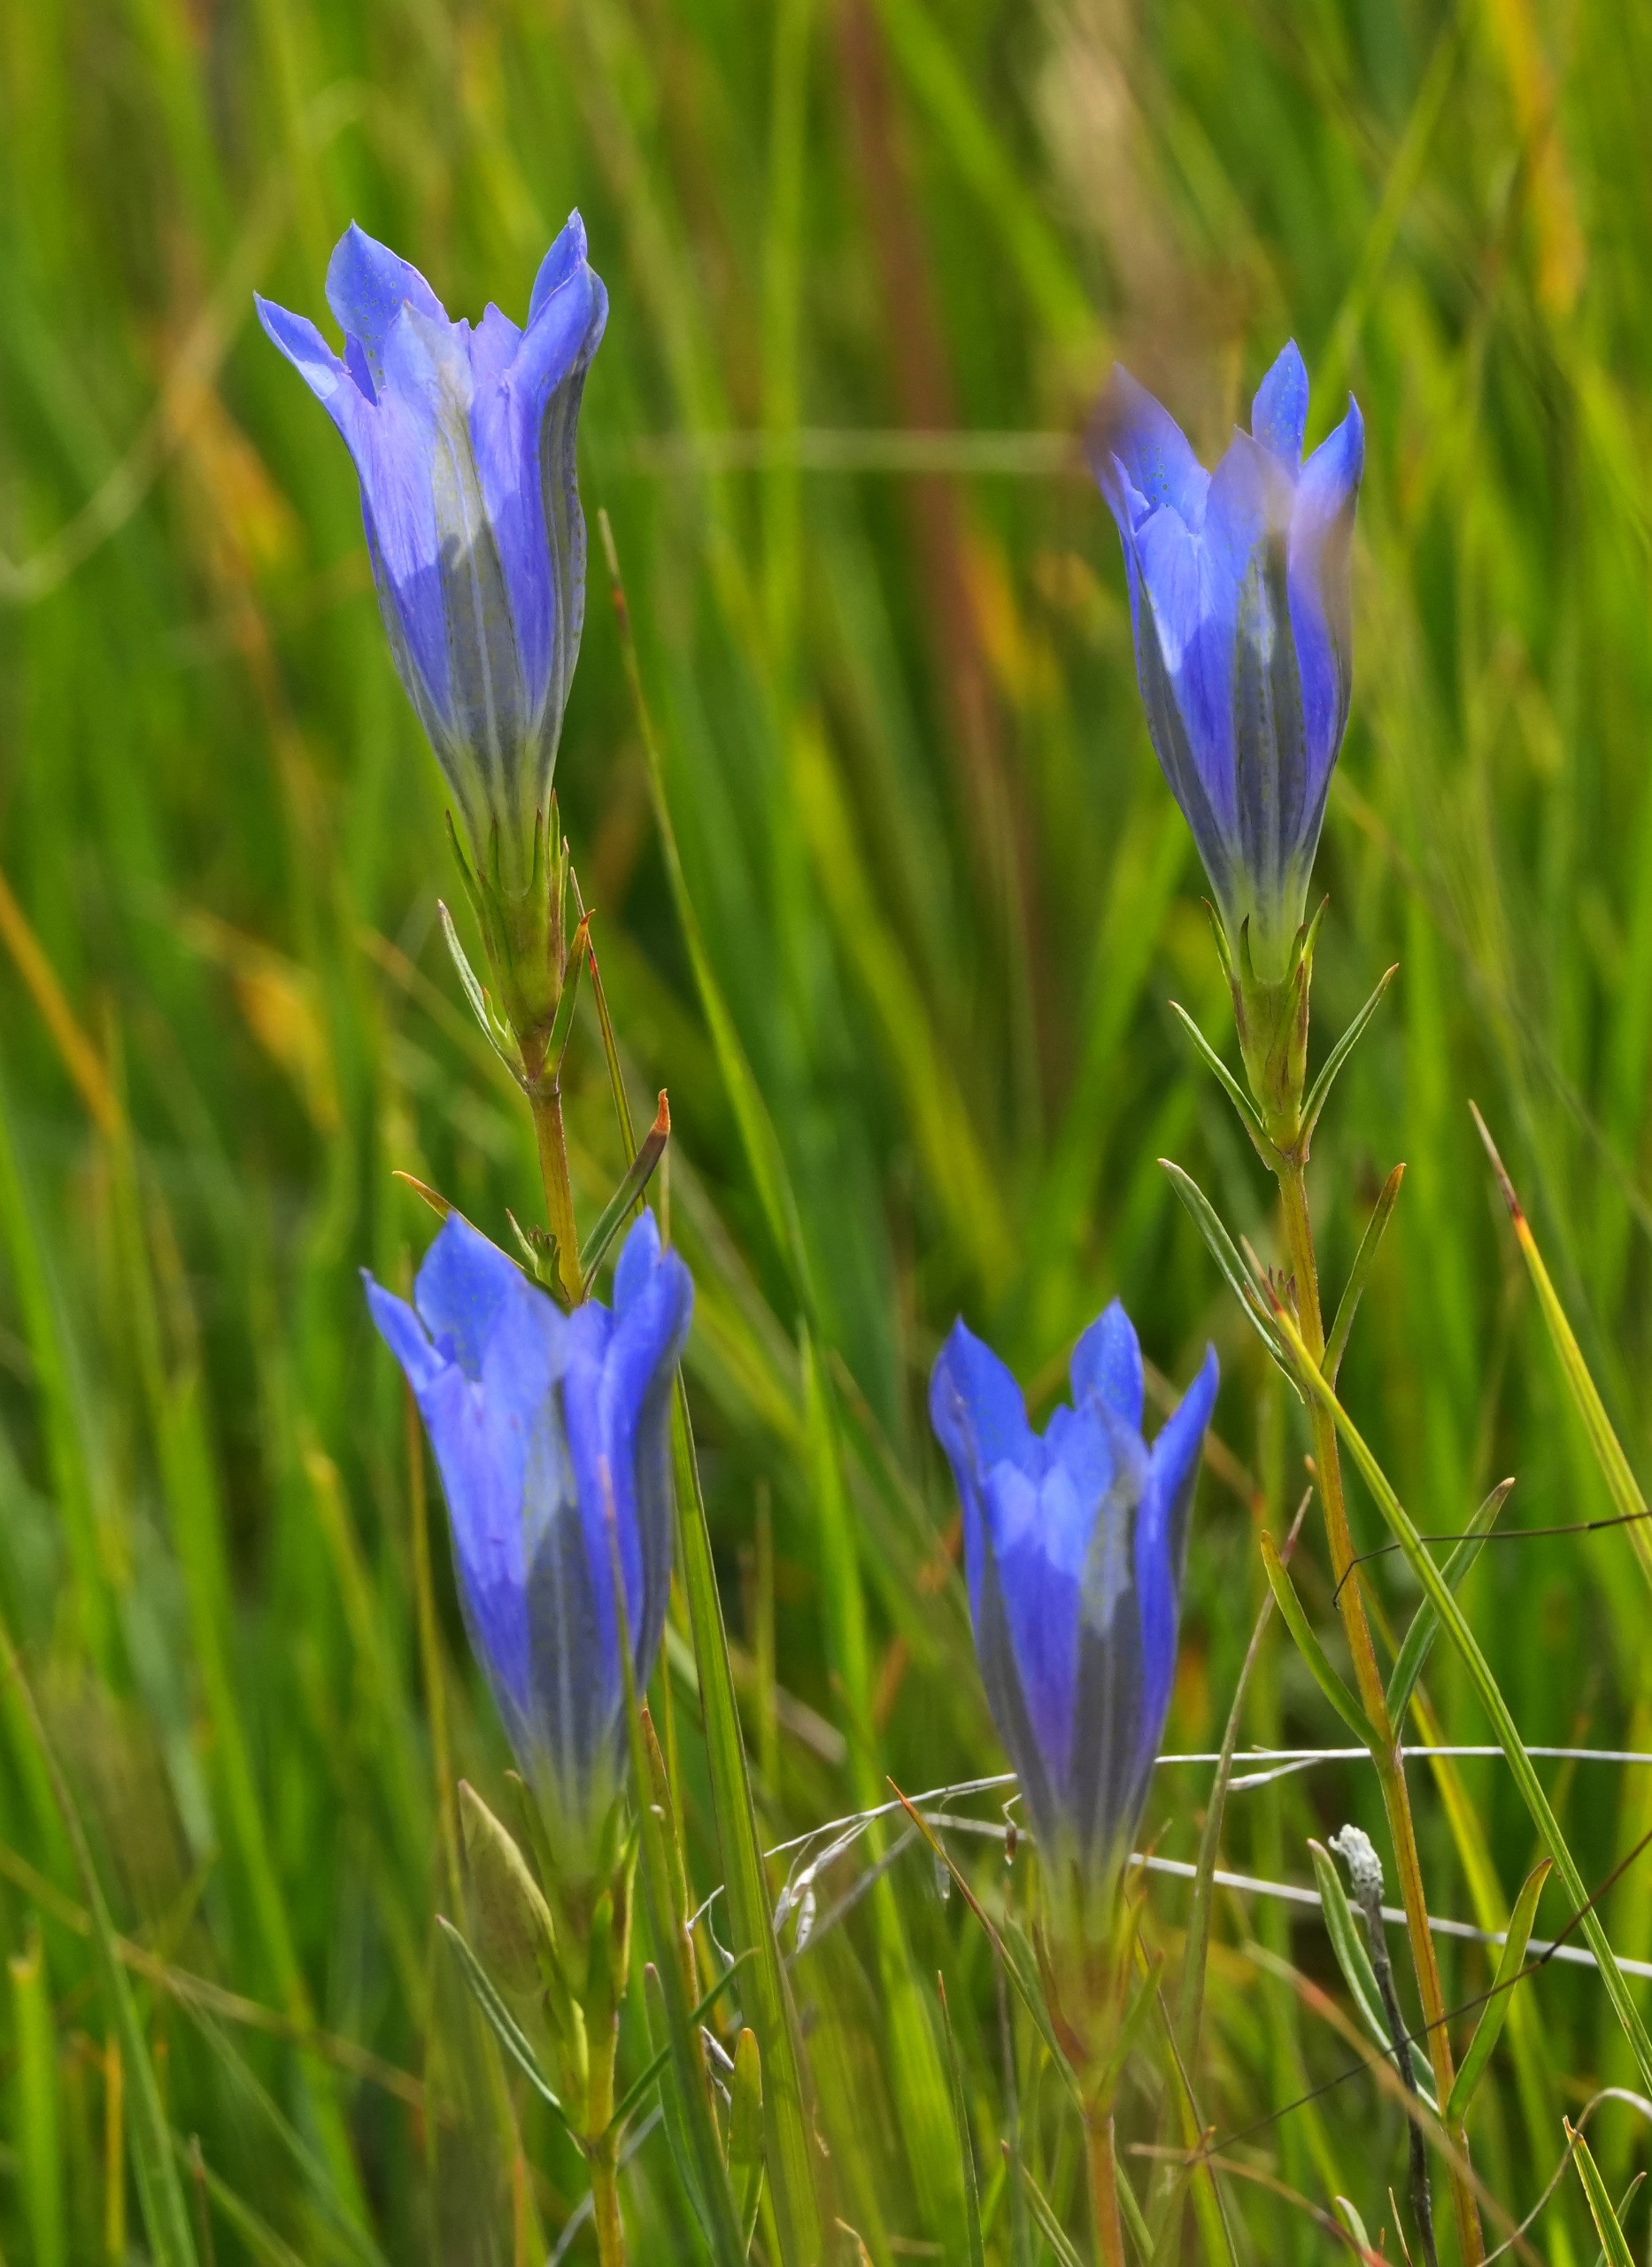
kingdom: Plantae
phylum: Tracheophyta
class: Magnoliopsida
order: Gentianales
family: Gentianaceae
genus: Gentiana
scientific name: Gentiana pneumonanthe
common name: Klokke-ensian
